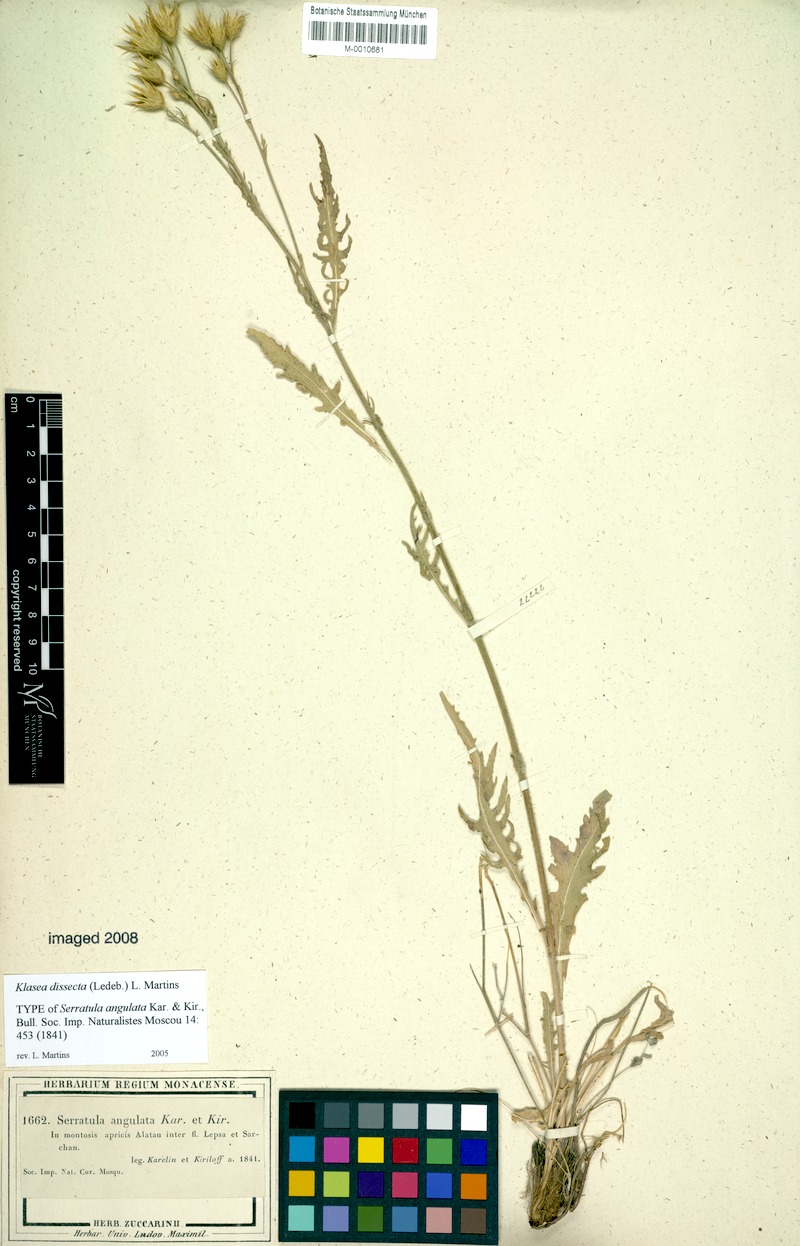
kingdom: Plantae
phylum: Tracheophyta
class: Magnoliopsida
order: Asterales
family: Asteraceae
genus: Klasea
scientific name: Klasea dissecta
